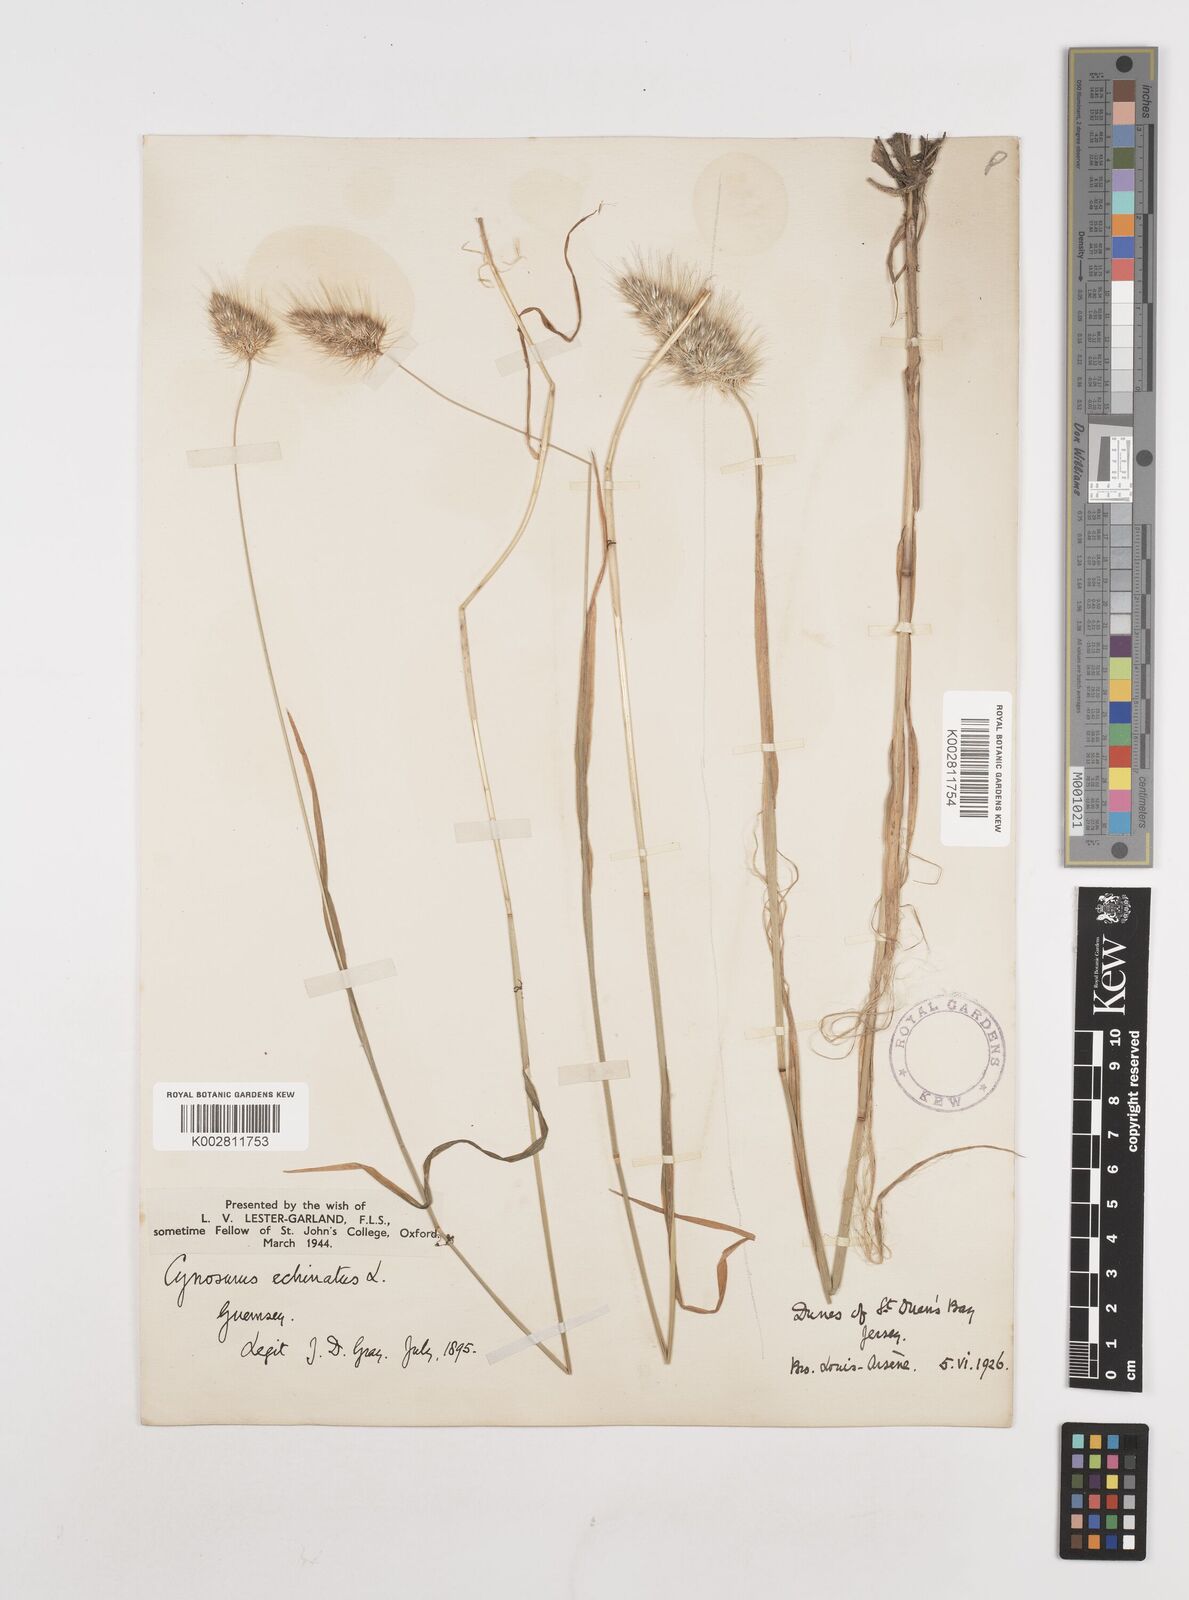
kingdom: Plantae
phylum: Tracheophyta
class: Liliopsida
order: Poales
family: Poaceae
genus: Cynosurus
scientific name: Cynosurus echinatus
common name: Rough dog's-tail
